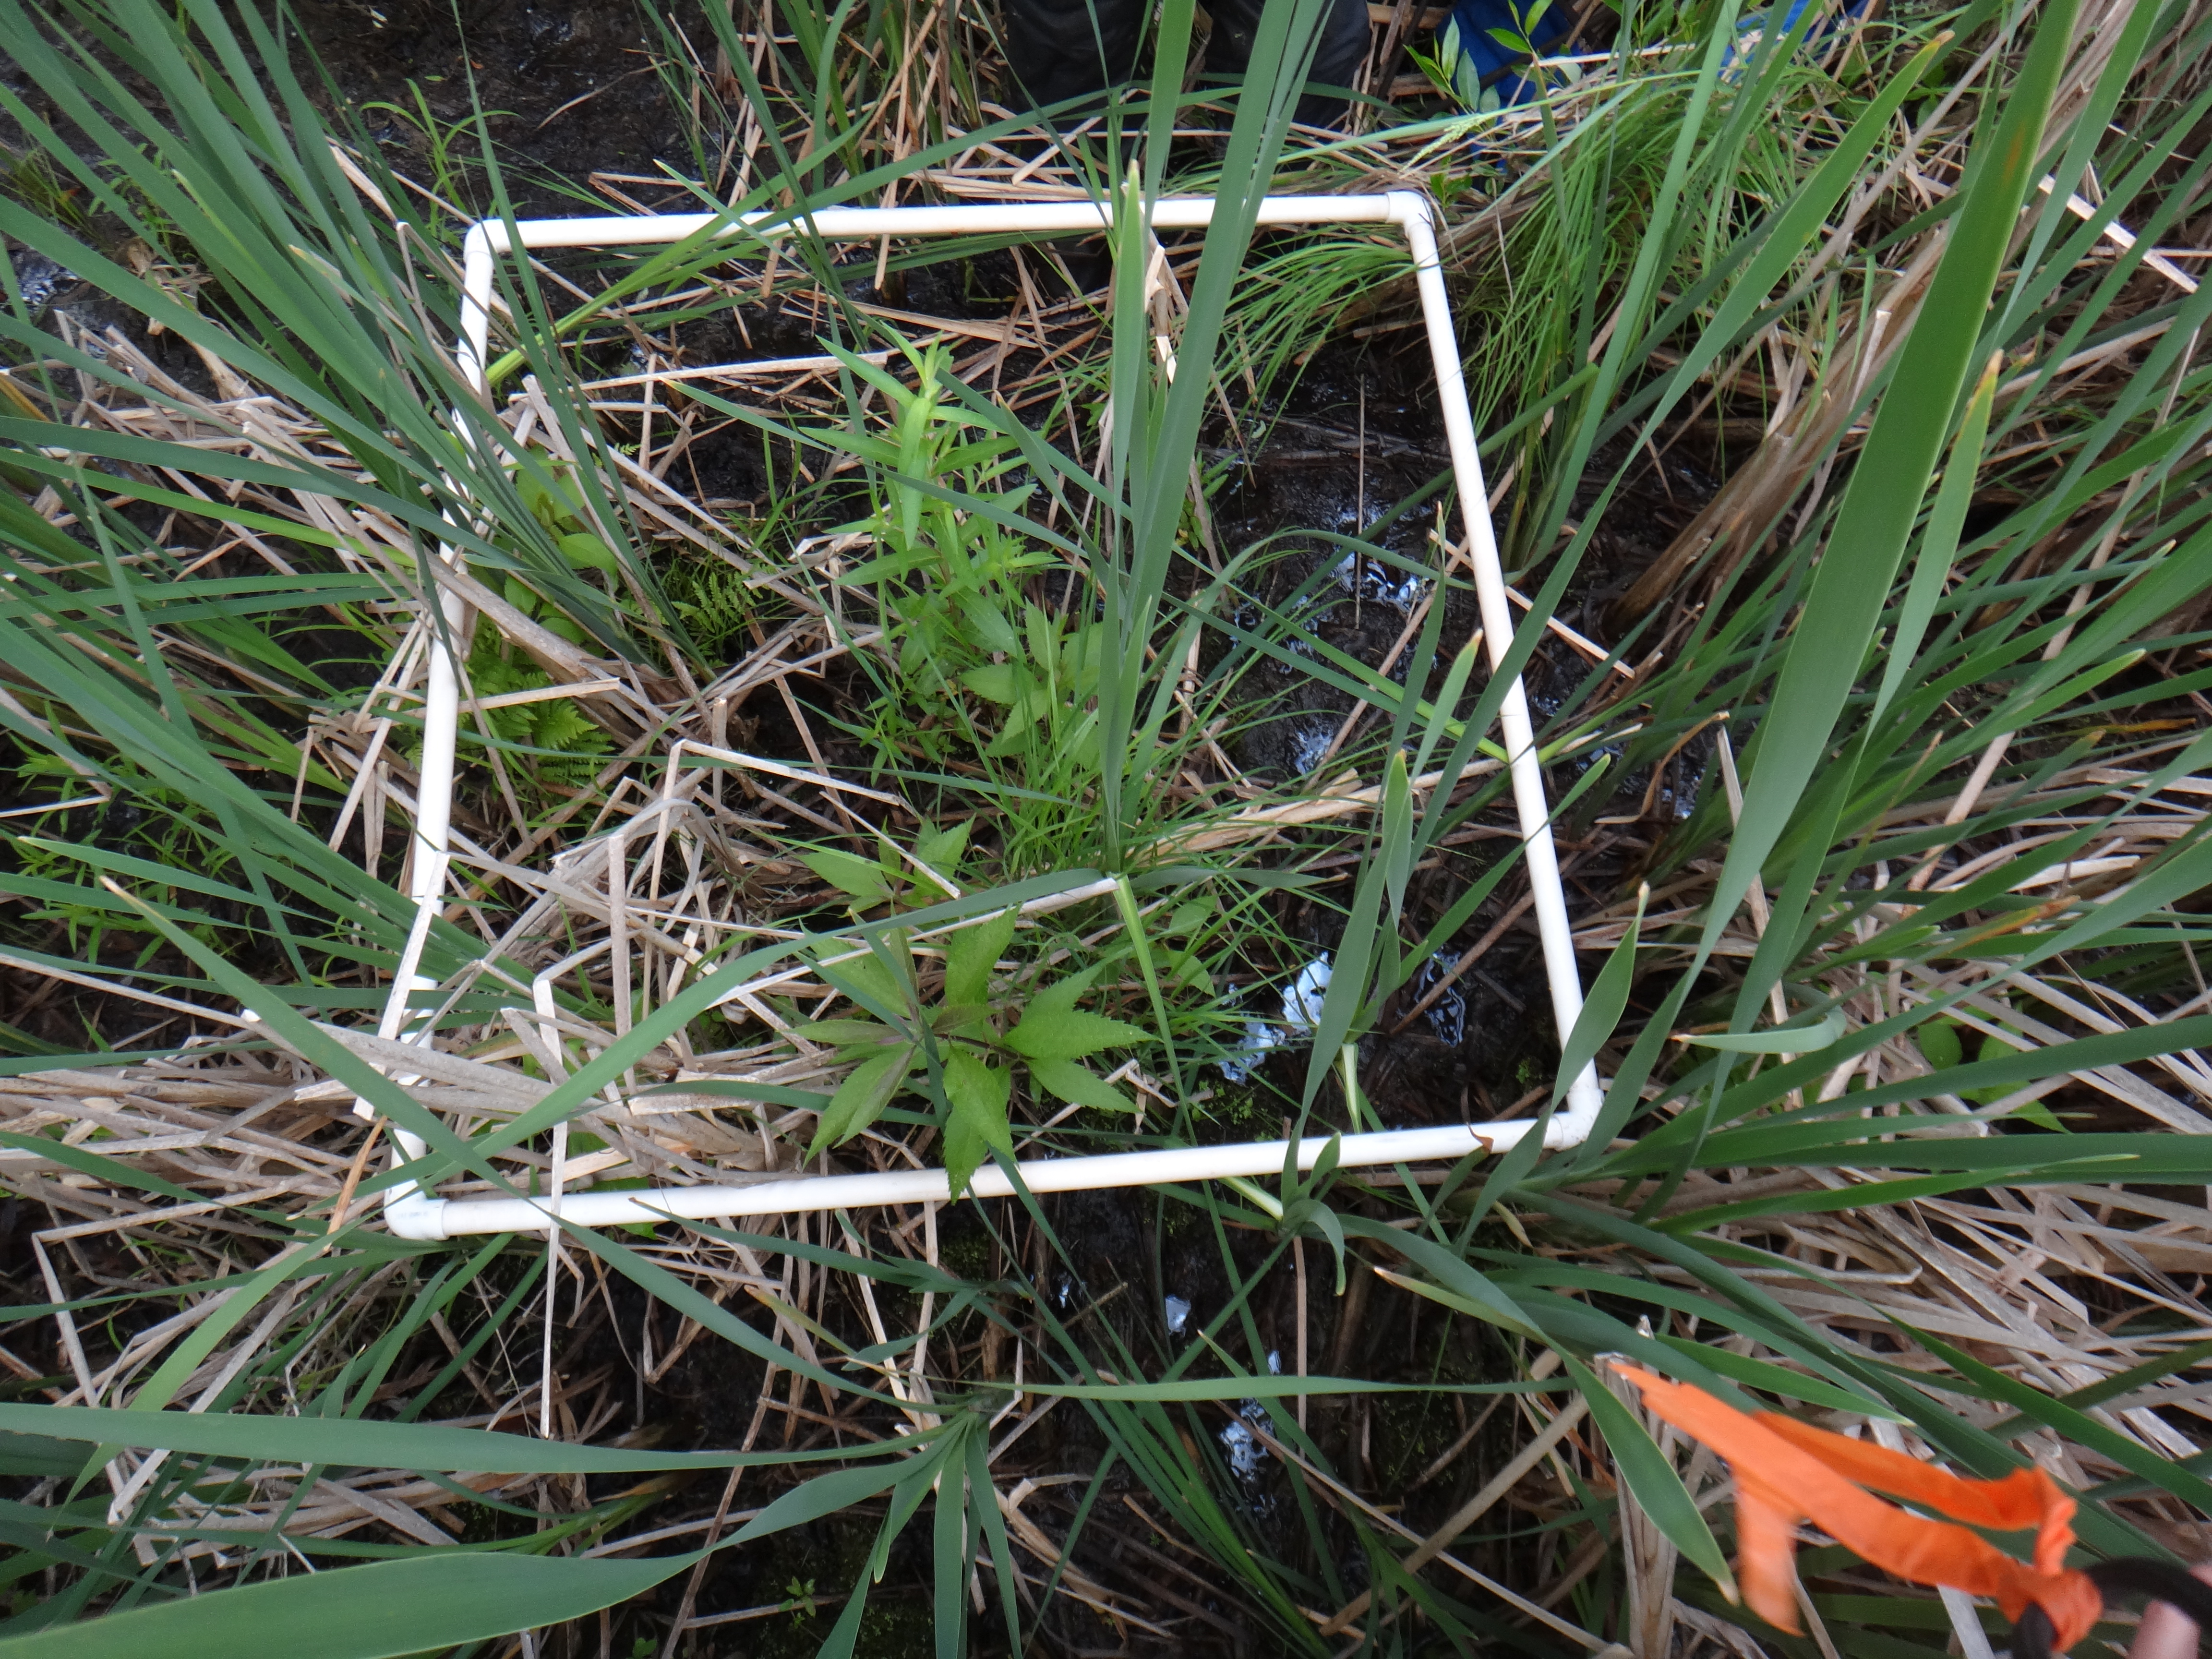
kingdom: Plantae
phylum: Tracheophyta
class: Liliopsida
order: Poales
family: Poaceae
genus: Calamagrostis
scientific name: Calamagrostis canadensis
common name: Canada bluejoint
